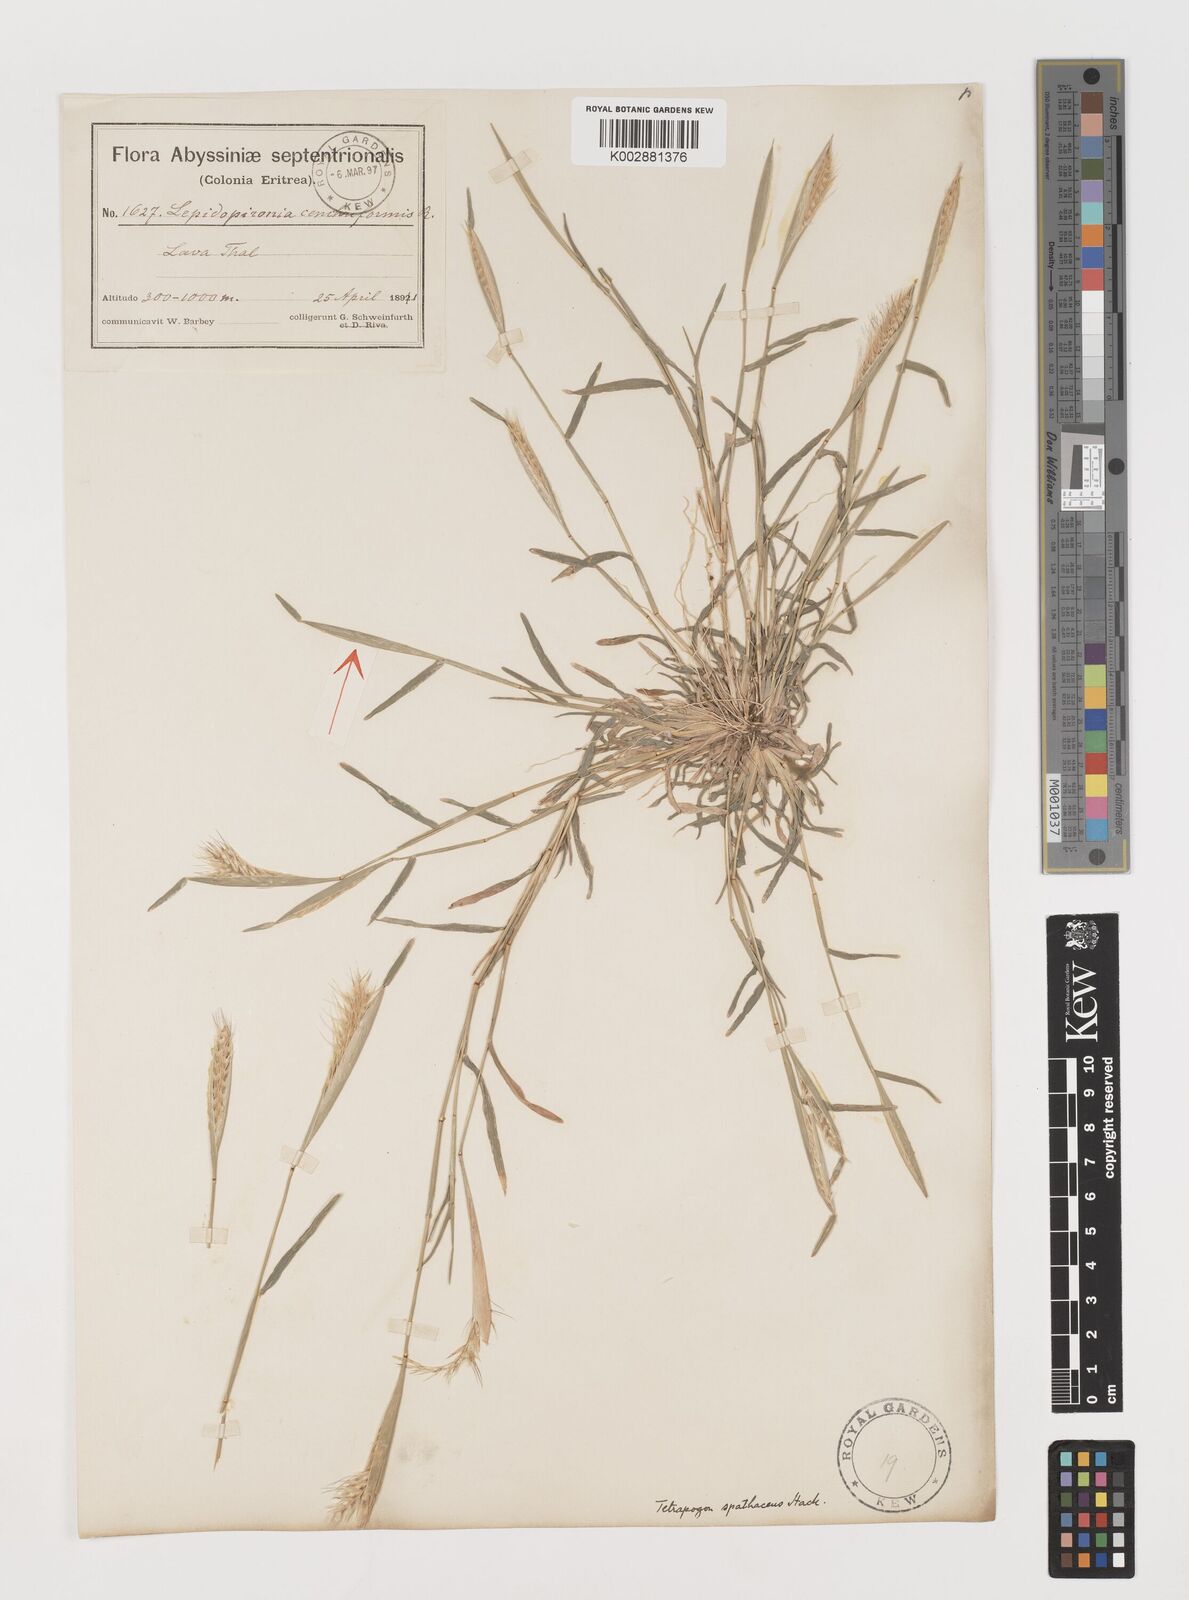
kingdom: Plantae
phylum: Tracheophyta
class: Liliopsida
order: Poales
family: Poaceae
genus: Tetrapogon
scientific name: Tetrapogon cenchriformis
